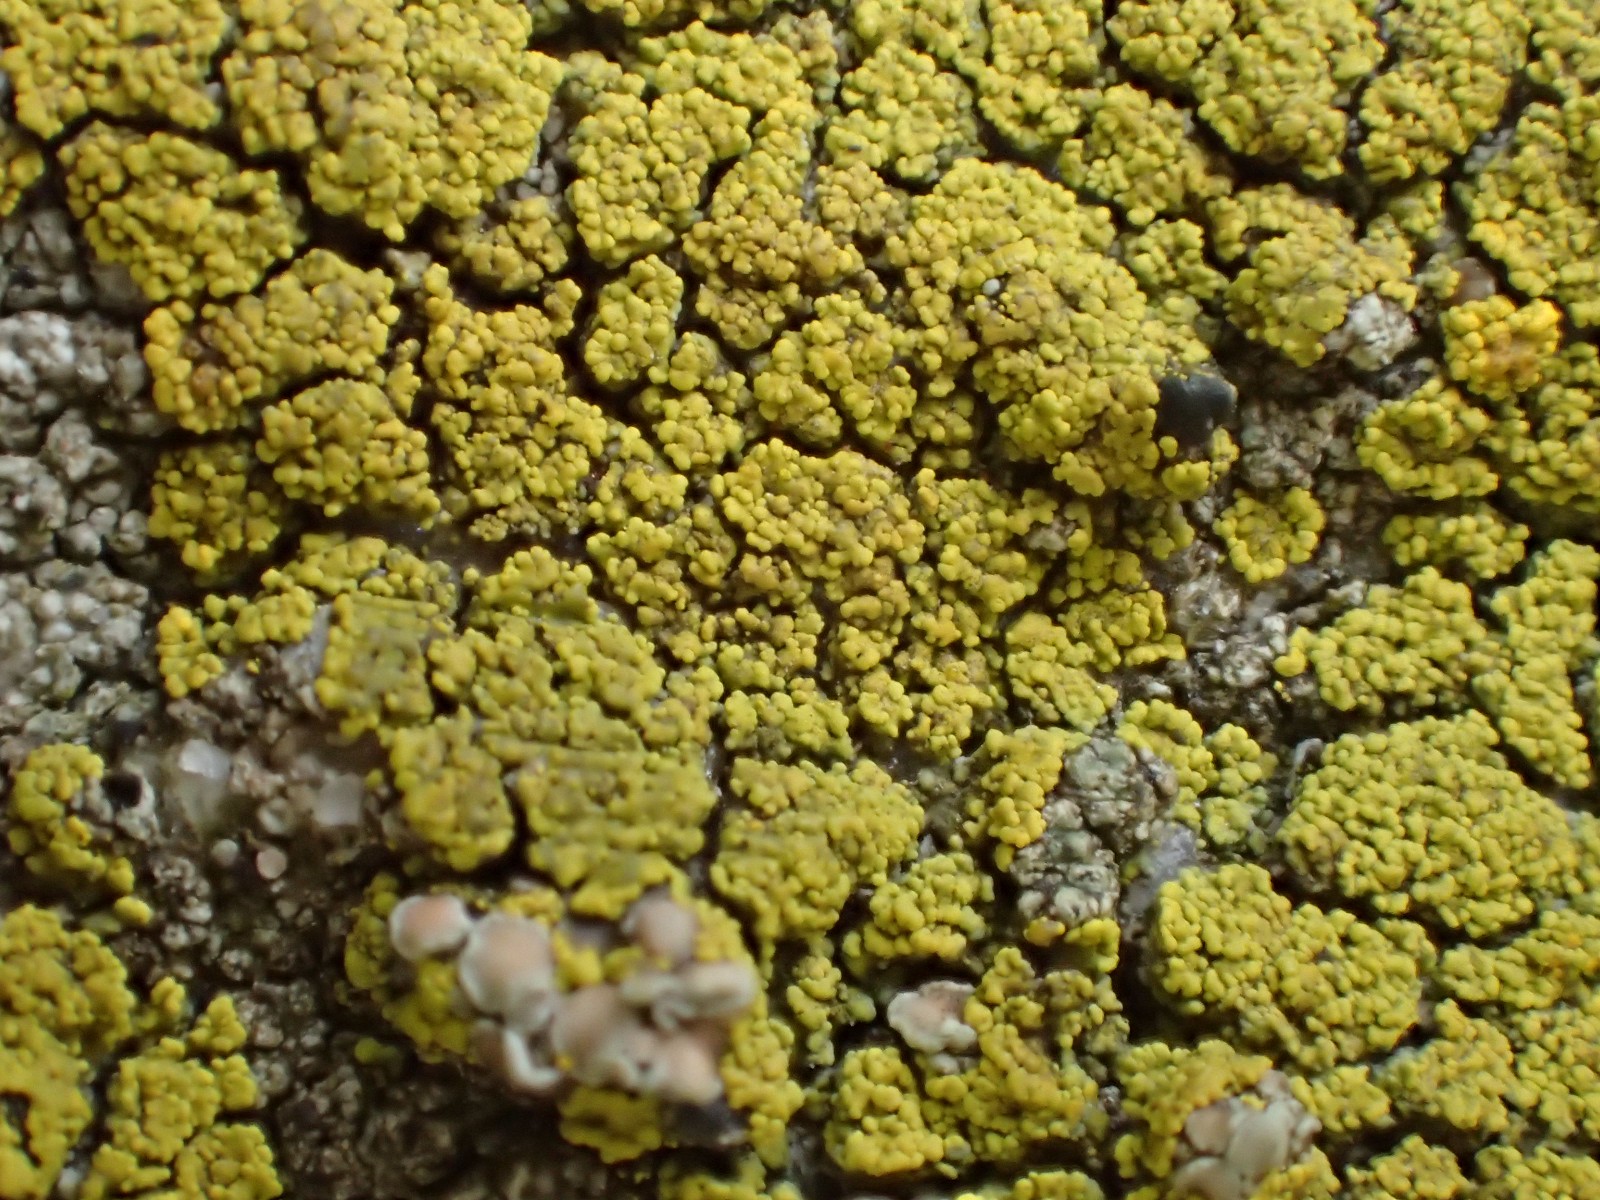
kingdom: Fungi
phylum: Ascomycota
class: Candelariomycetes
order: Candelariales
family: Candelariaceae
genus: Candelariella
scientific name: Candelariella vitellina
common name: almindelig æggeblommelav
